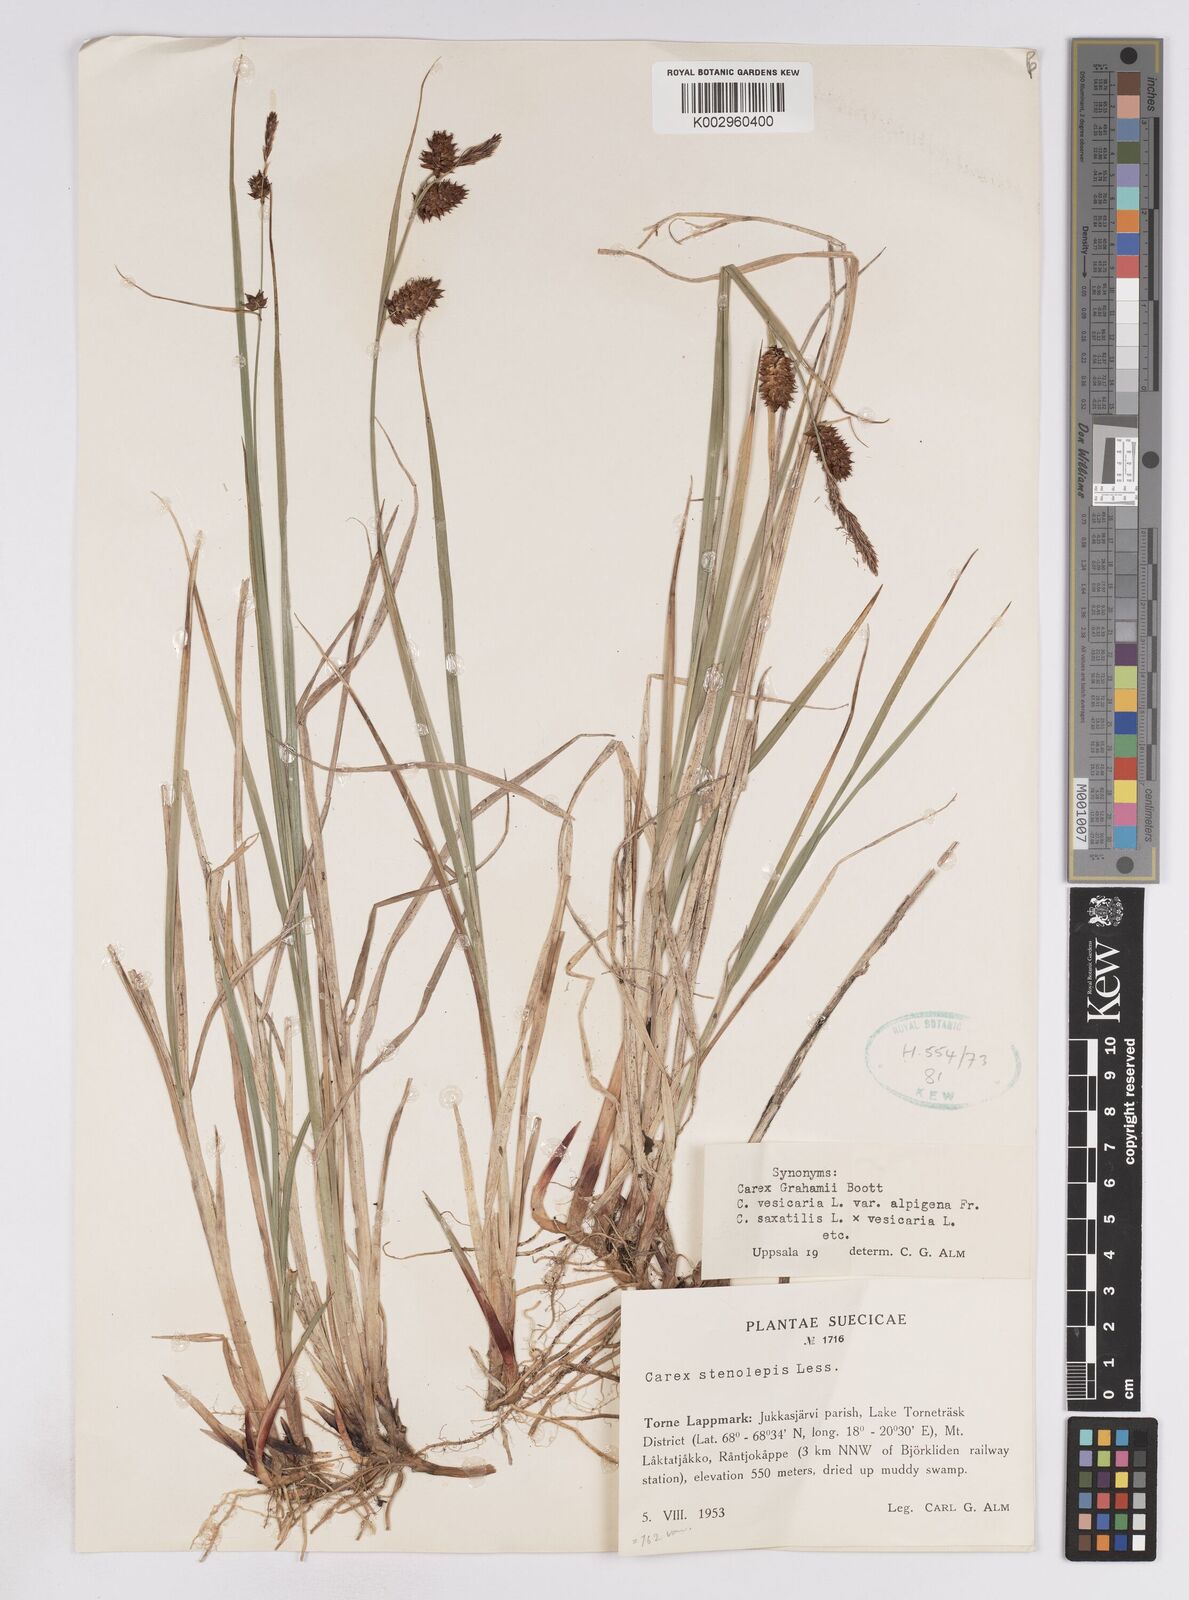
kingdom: Plantae
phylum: Tracheophyta
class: Liliopsida
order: Poales
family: Cyperaceae
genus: Carex
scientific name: Carex rostrata
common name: Bottle sedge
